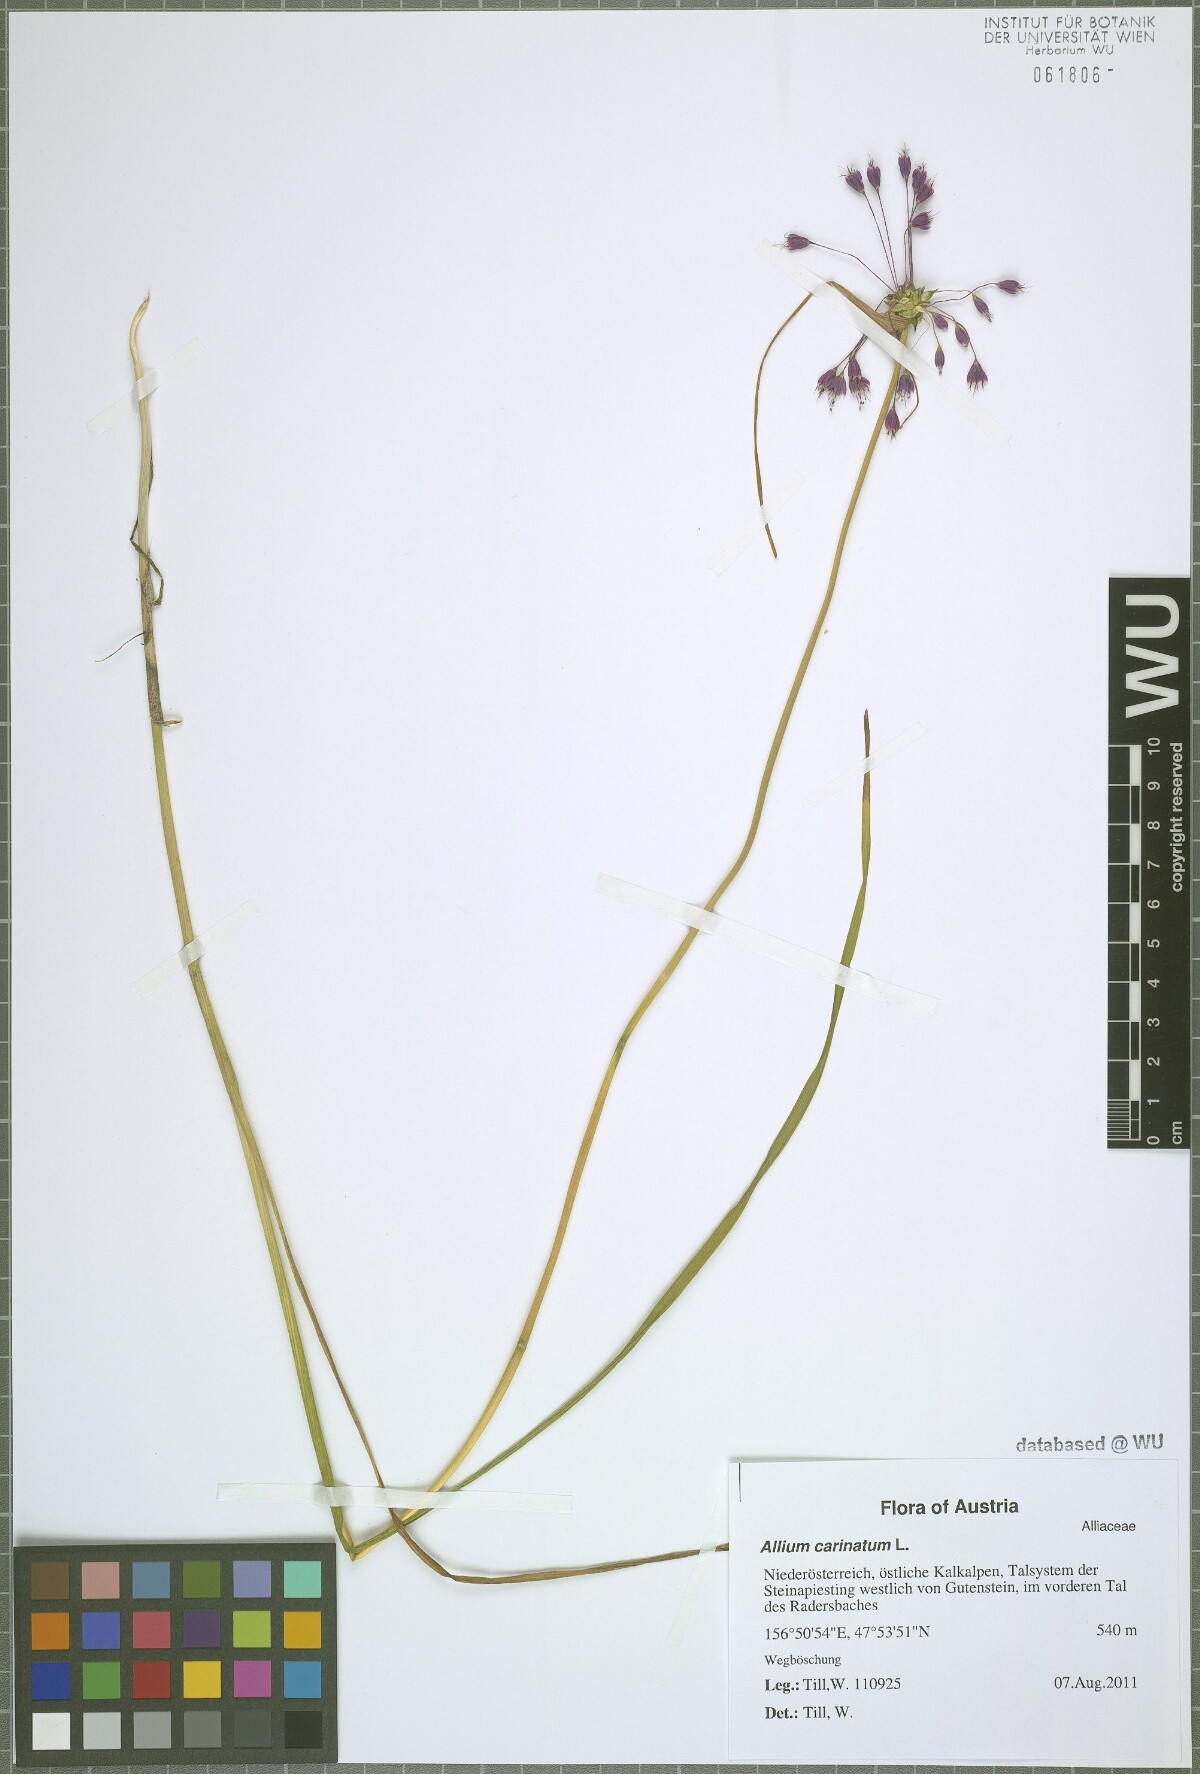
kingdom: Plantae
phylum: Tracheophyta
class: Liliopsida
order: Asparagales
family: Amaryllidaceae
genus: Allium
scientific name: Allium carinatum
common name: Keeled garlic
